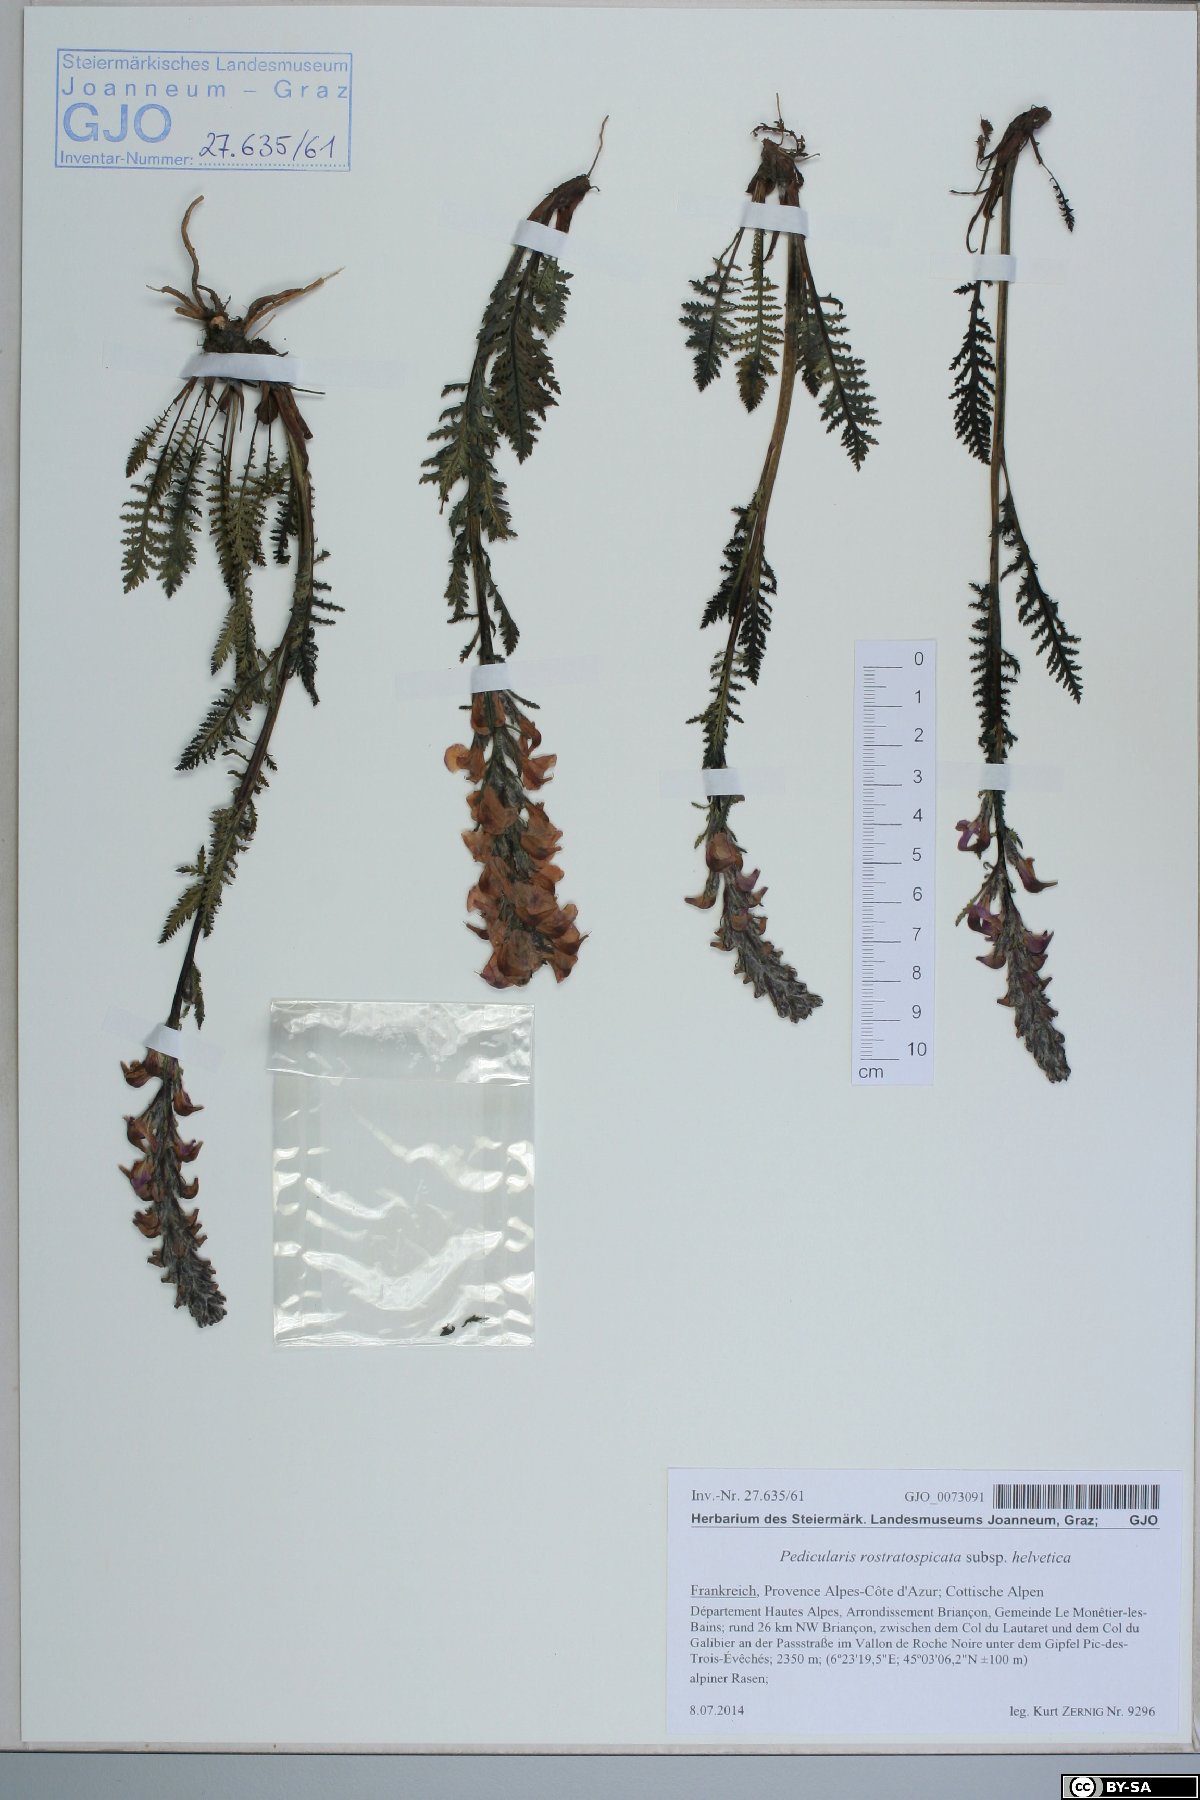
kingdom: Plantae
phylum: Tracheophyta
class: Magnoliopsida
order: Lamiales
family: Orobanchaceae
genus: Pedicularis
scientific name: Pedicularis rostratospicata
